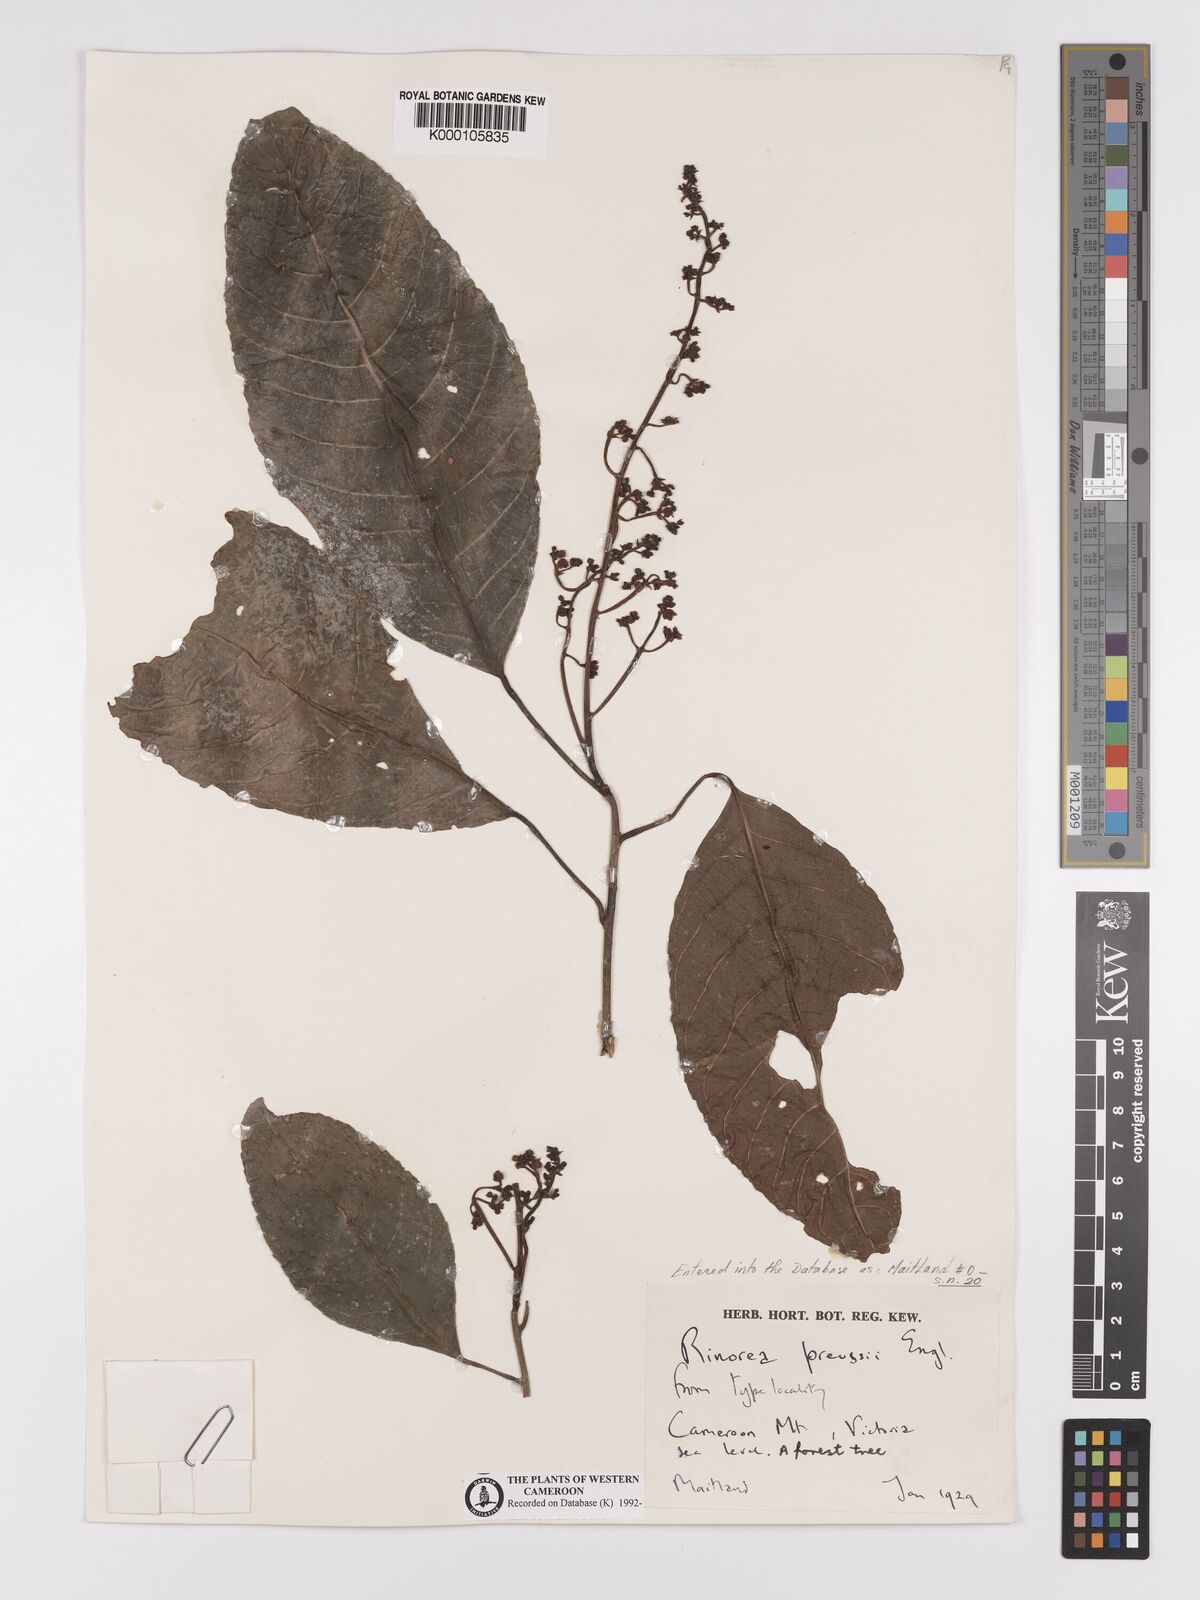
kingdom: Plantae
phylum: Tracheophyta
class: Magnoliopsida
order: Malpighiales
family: Violaceae
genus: Rinorea
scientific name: Rinorea preussii
